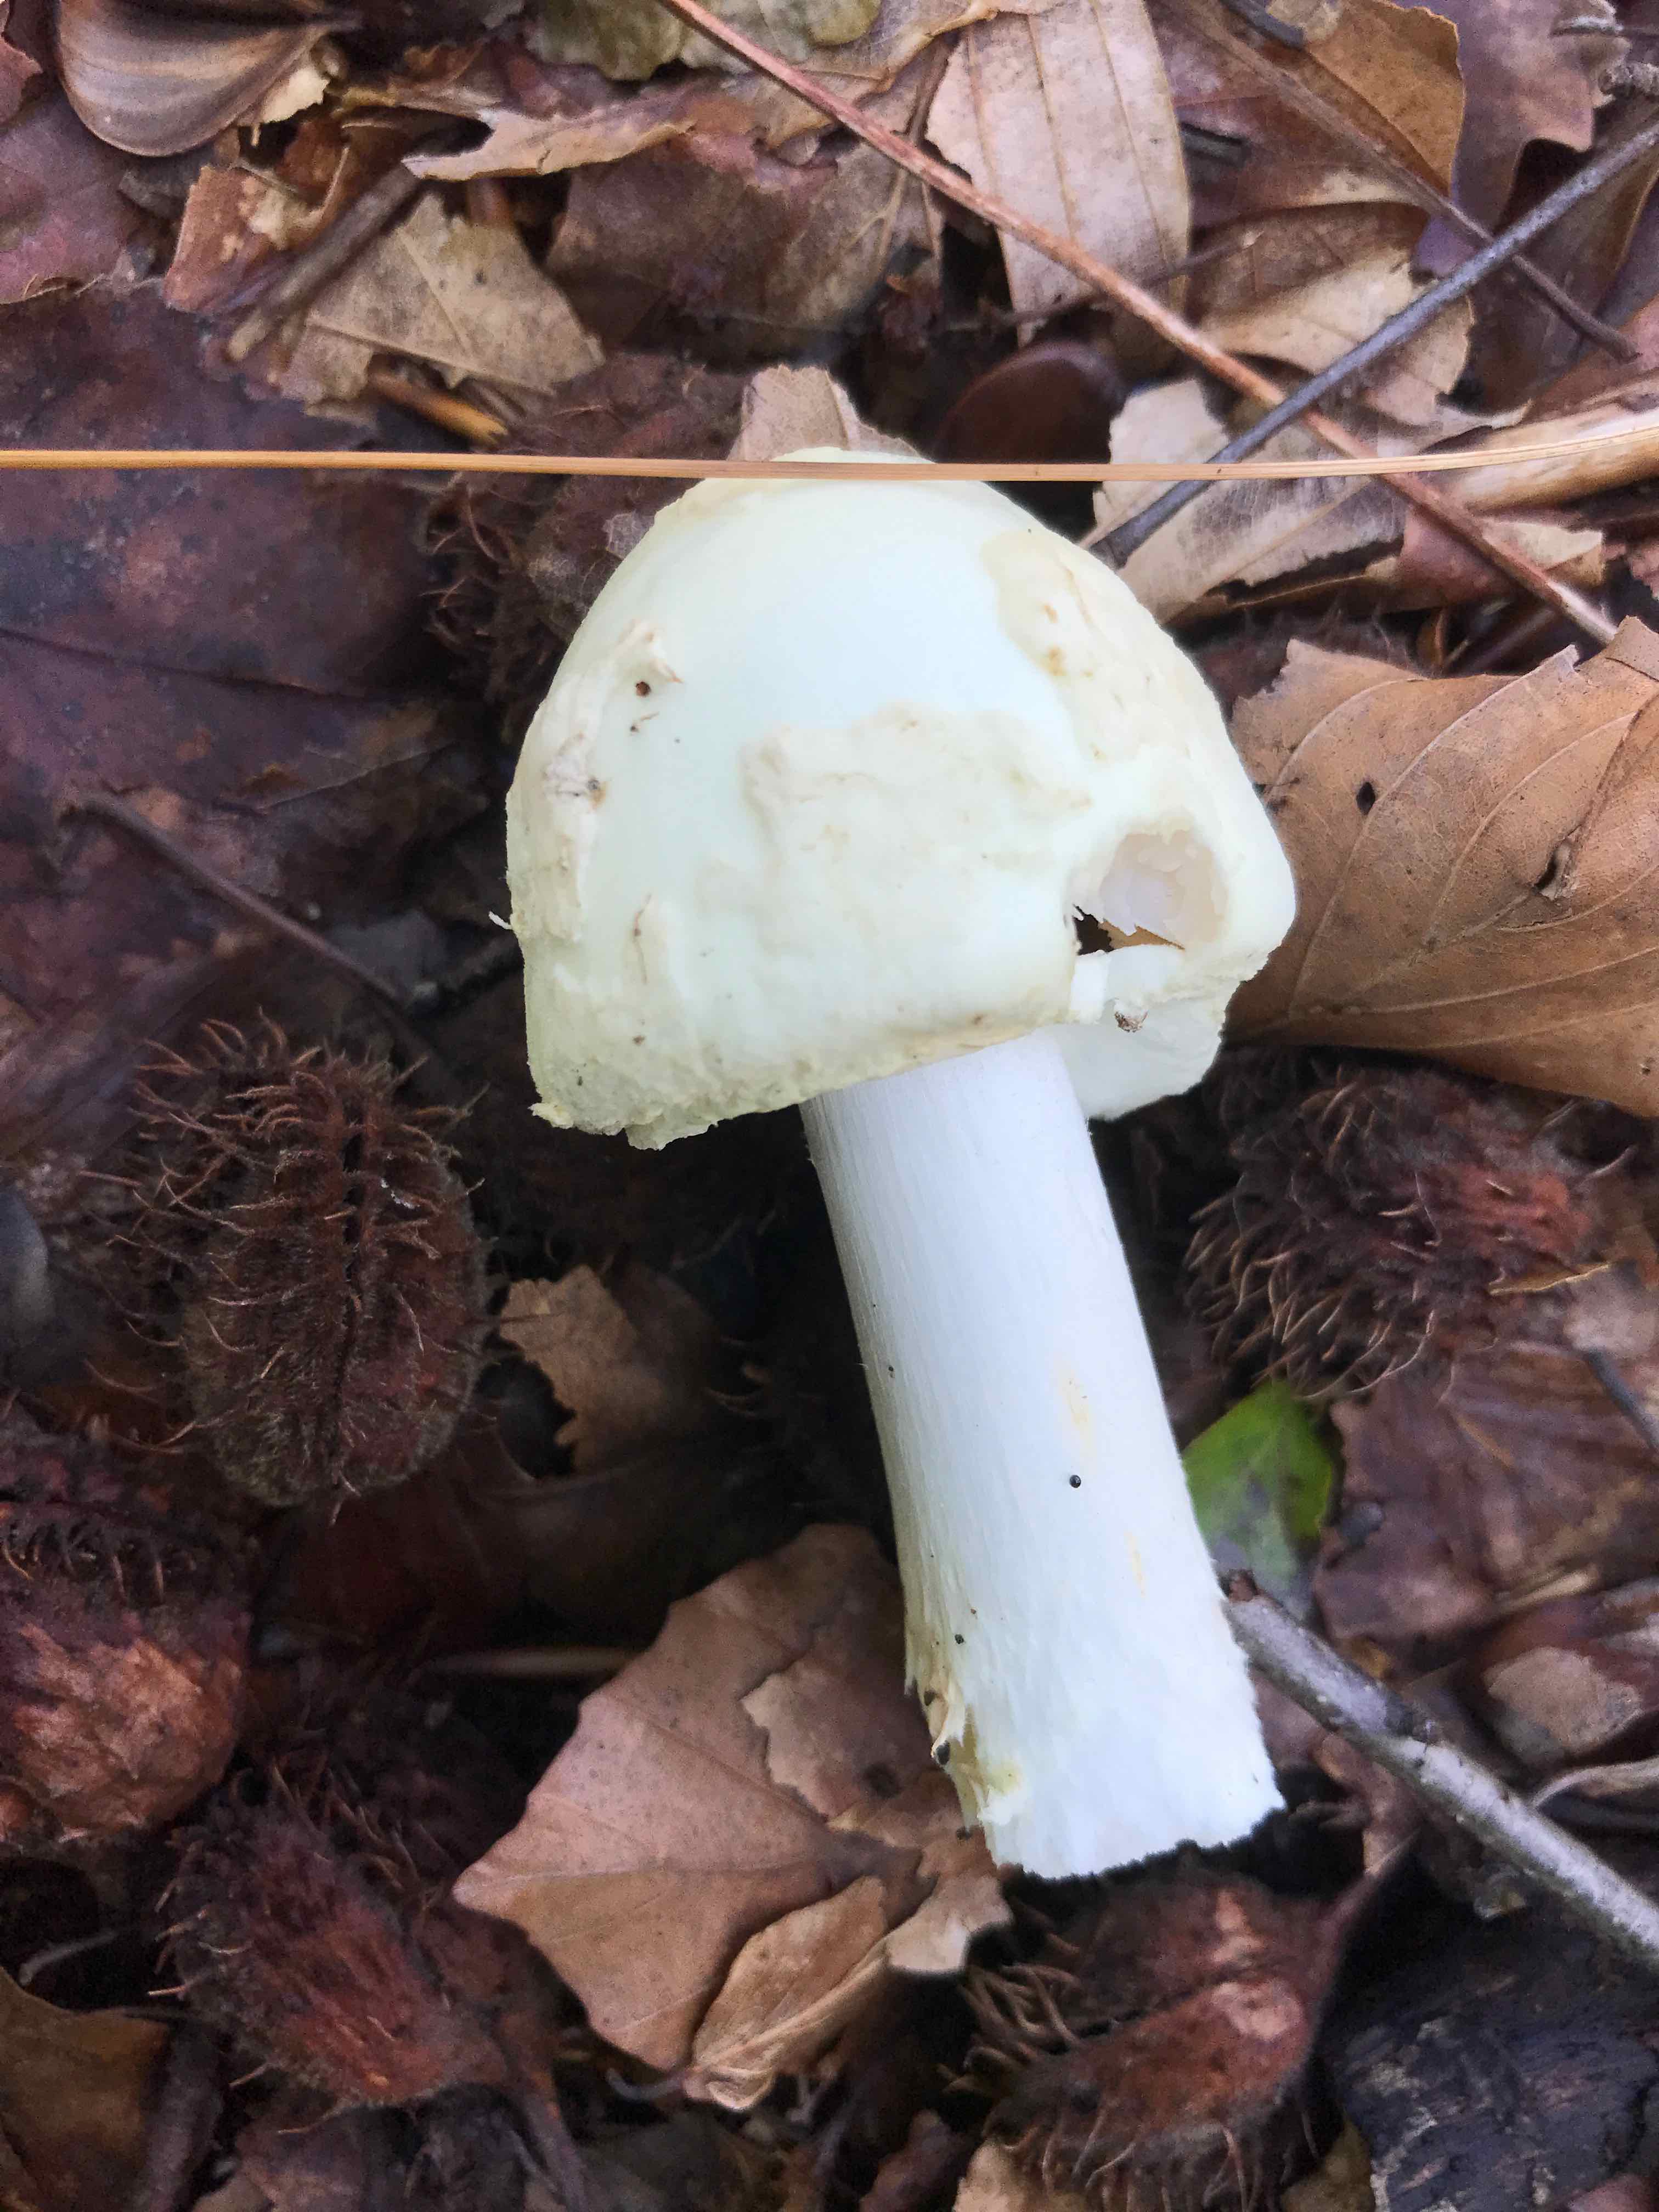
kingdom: Fungi
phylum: Basidiomycota
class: Agaricomycetes
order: Agaricales
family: Amanitaceae
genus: Amanita
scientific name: Amanita citrina
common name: kugleknoldet fluesvamp
